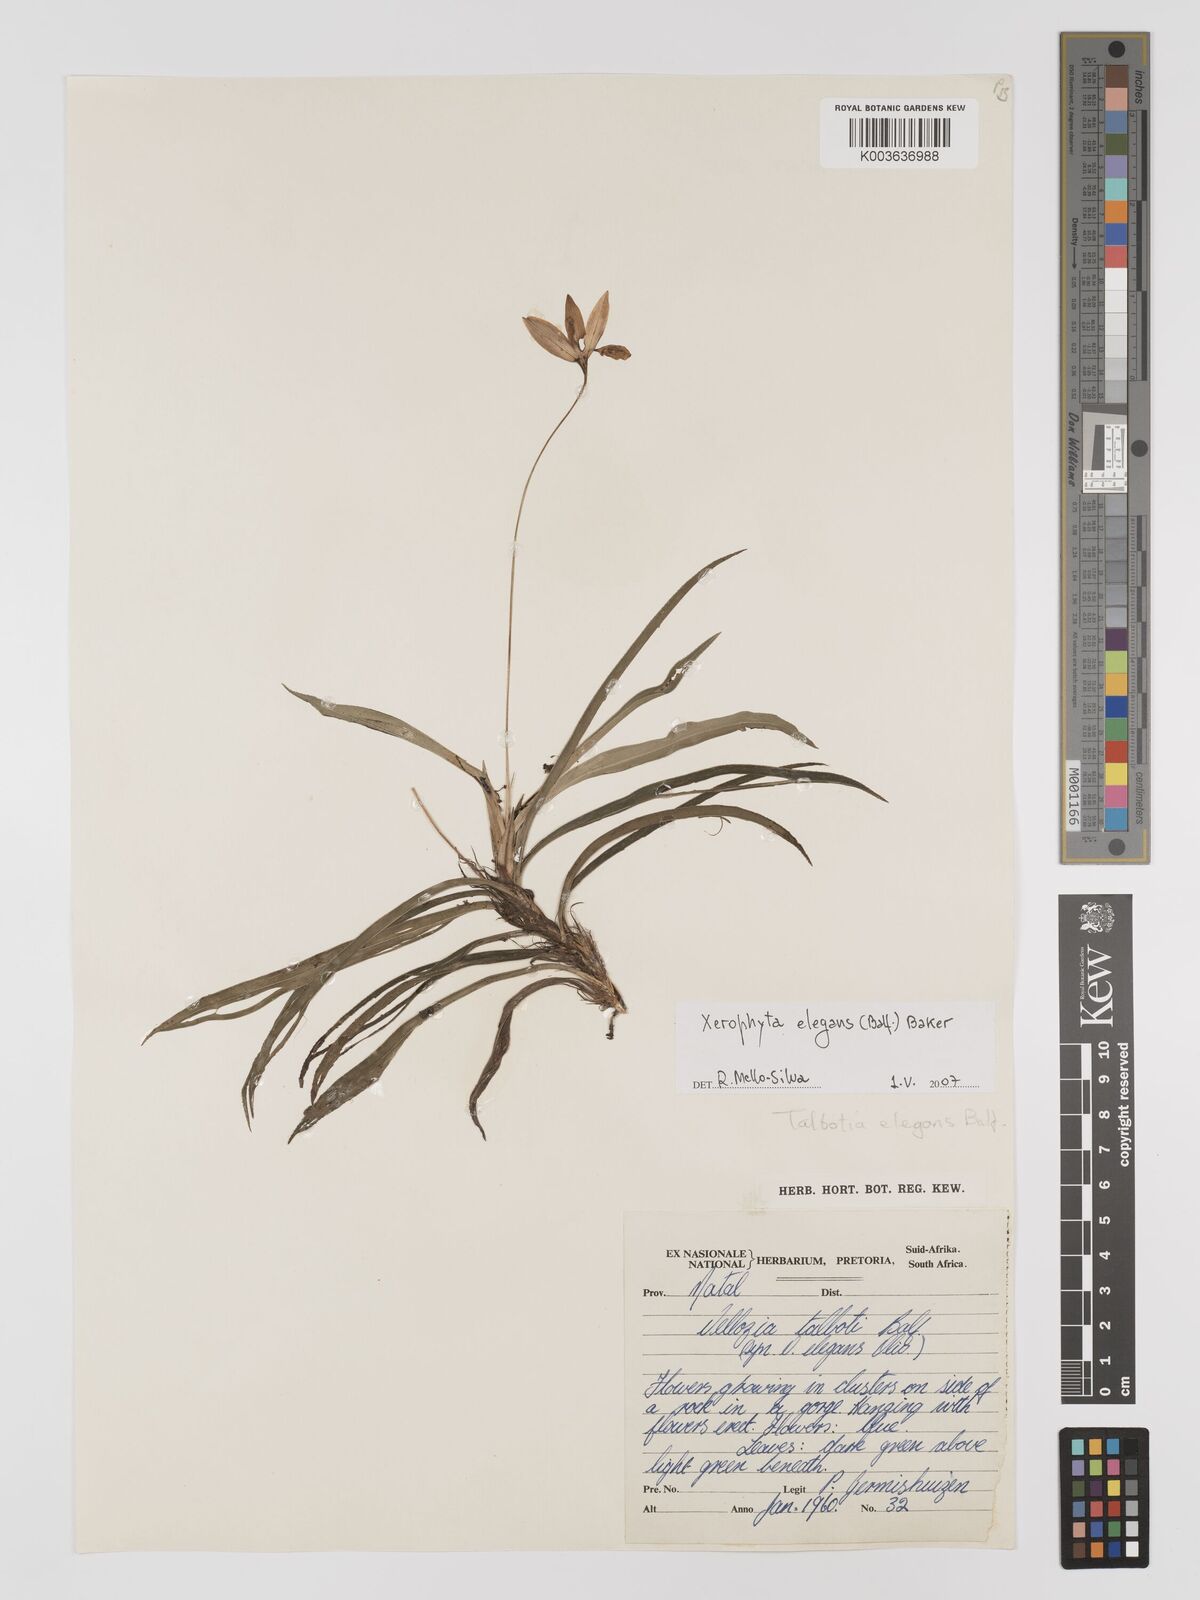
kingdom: Plantae
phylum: Tracheophyta
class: Liliopsida
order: Pandanales
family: Velloziaceae
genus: Xerophyta
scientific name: Xerophyta elegans
